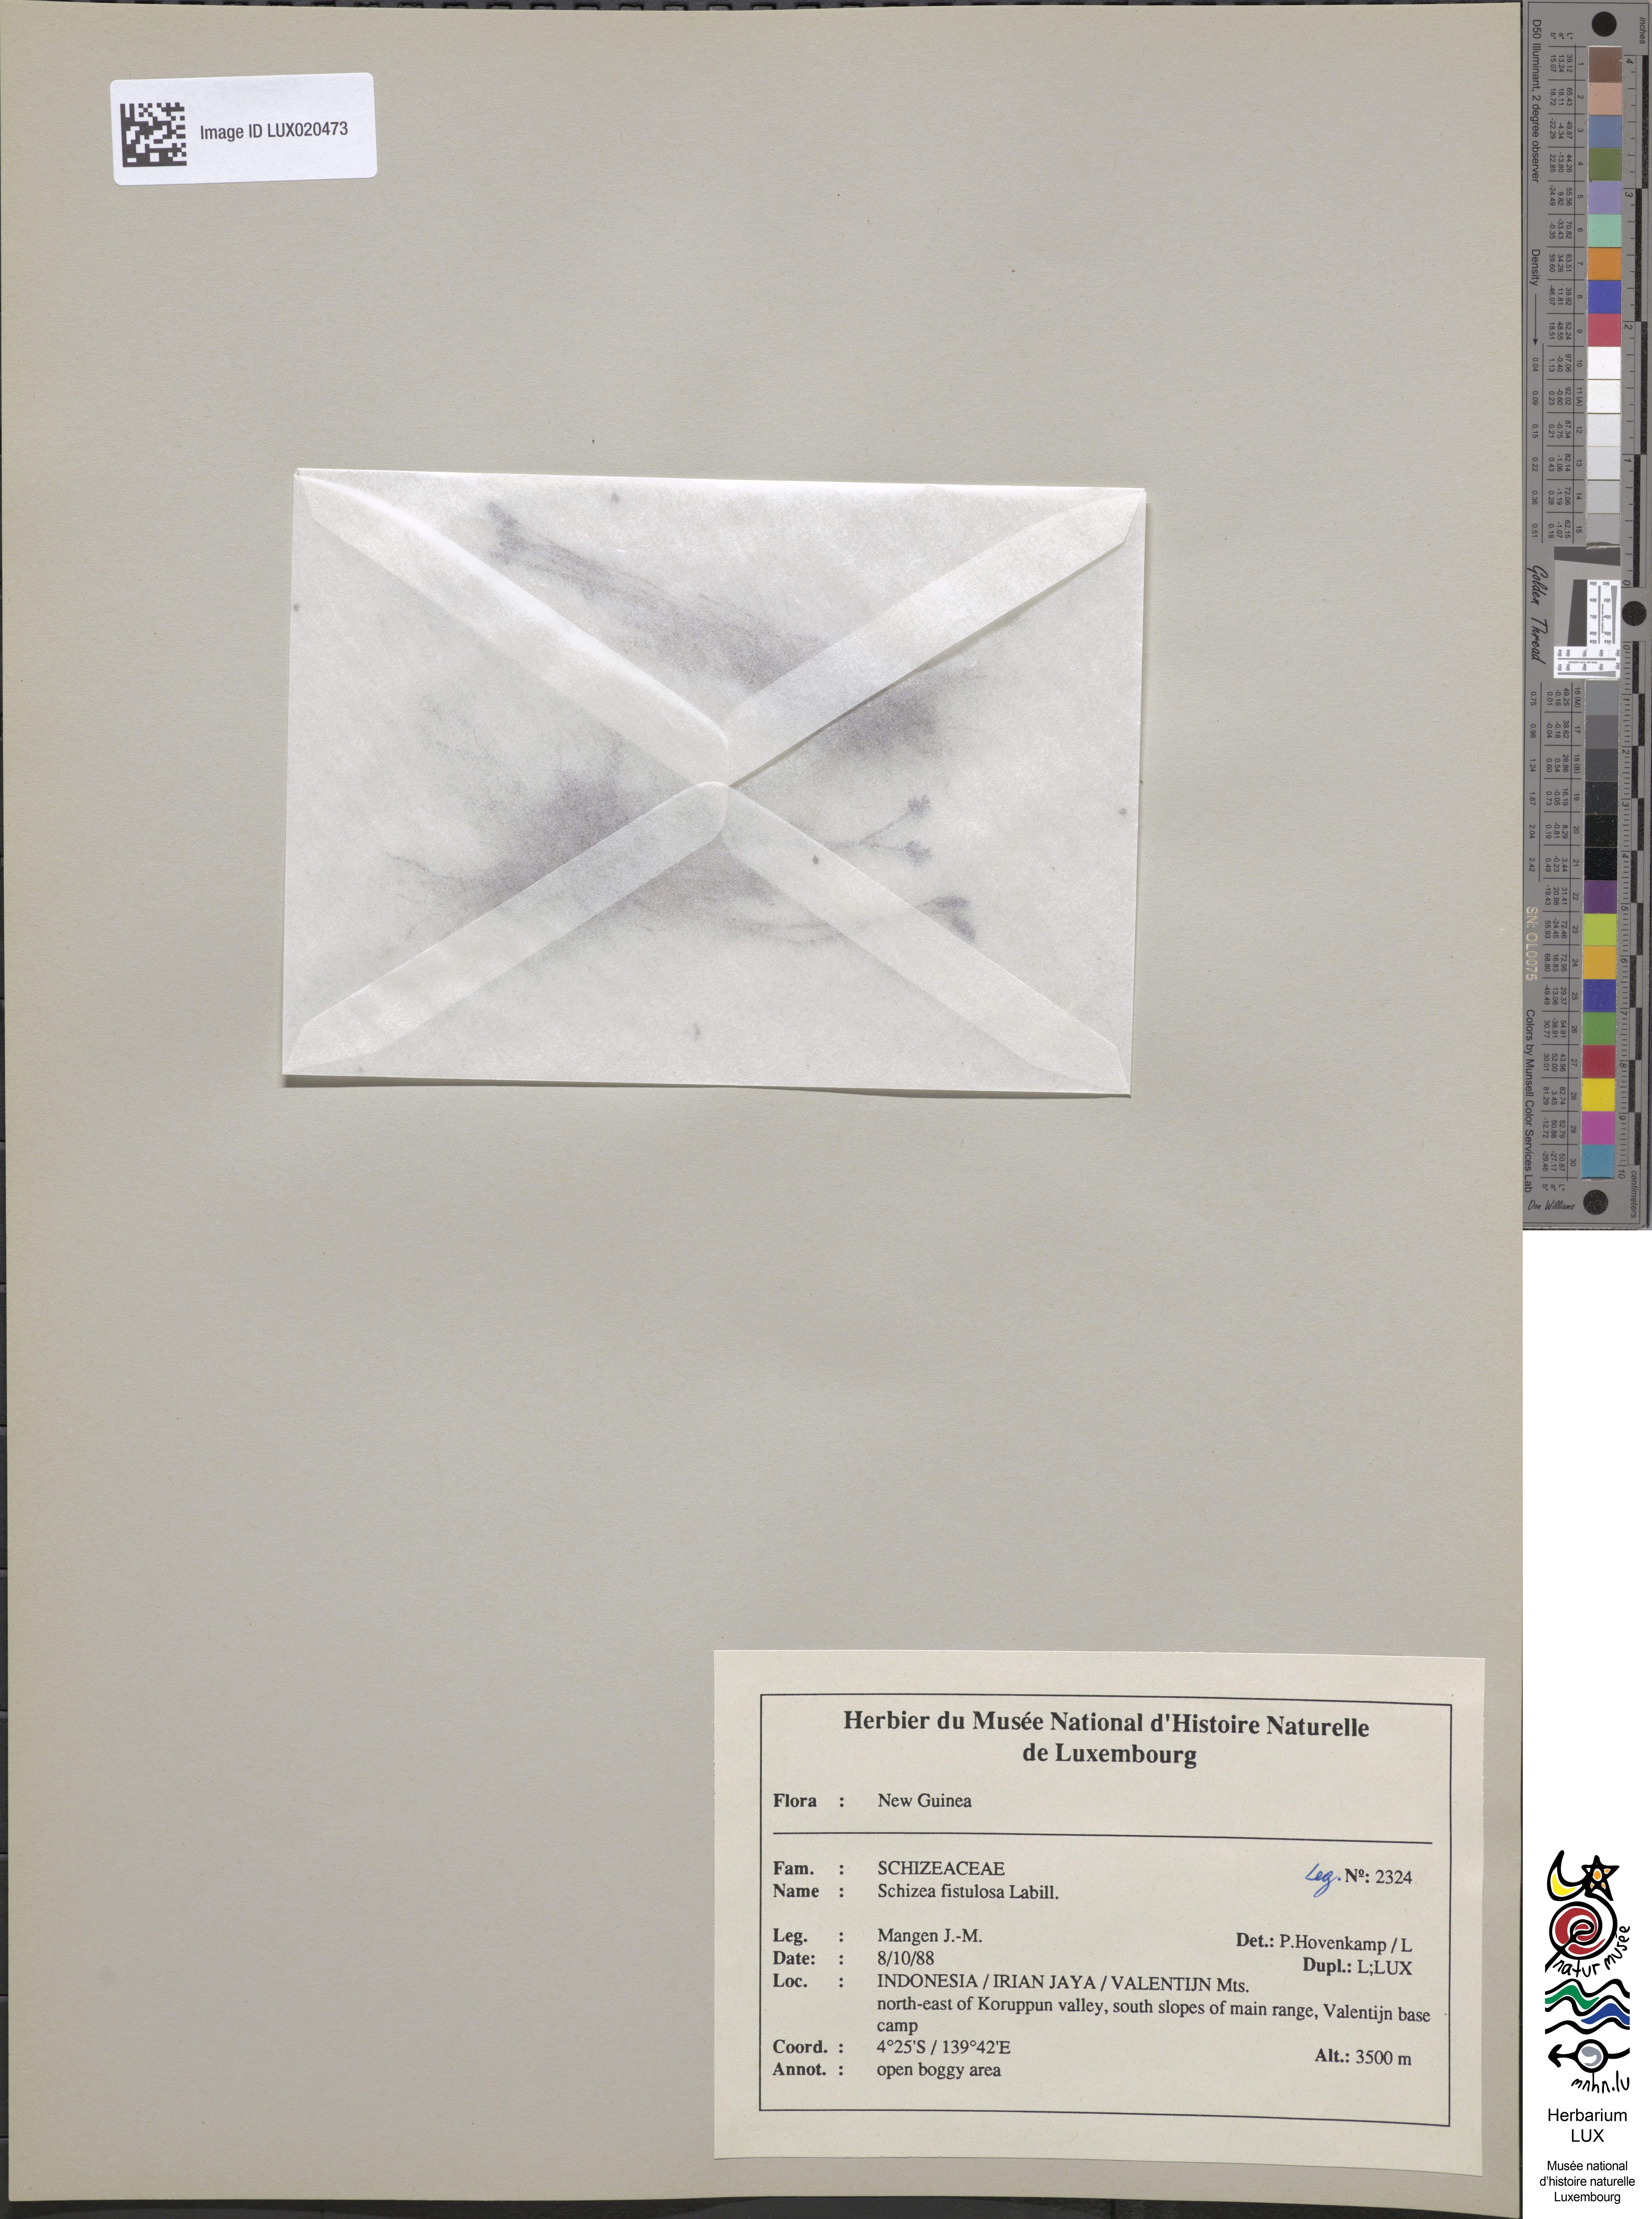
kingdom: Plantae
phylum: Tracheophyta
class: Polypodiopsida
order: Schizaeales
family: Schizaeaceae
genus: Microschizaea
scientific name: Microschizaea fistulosa
